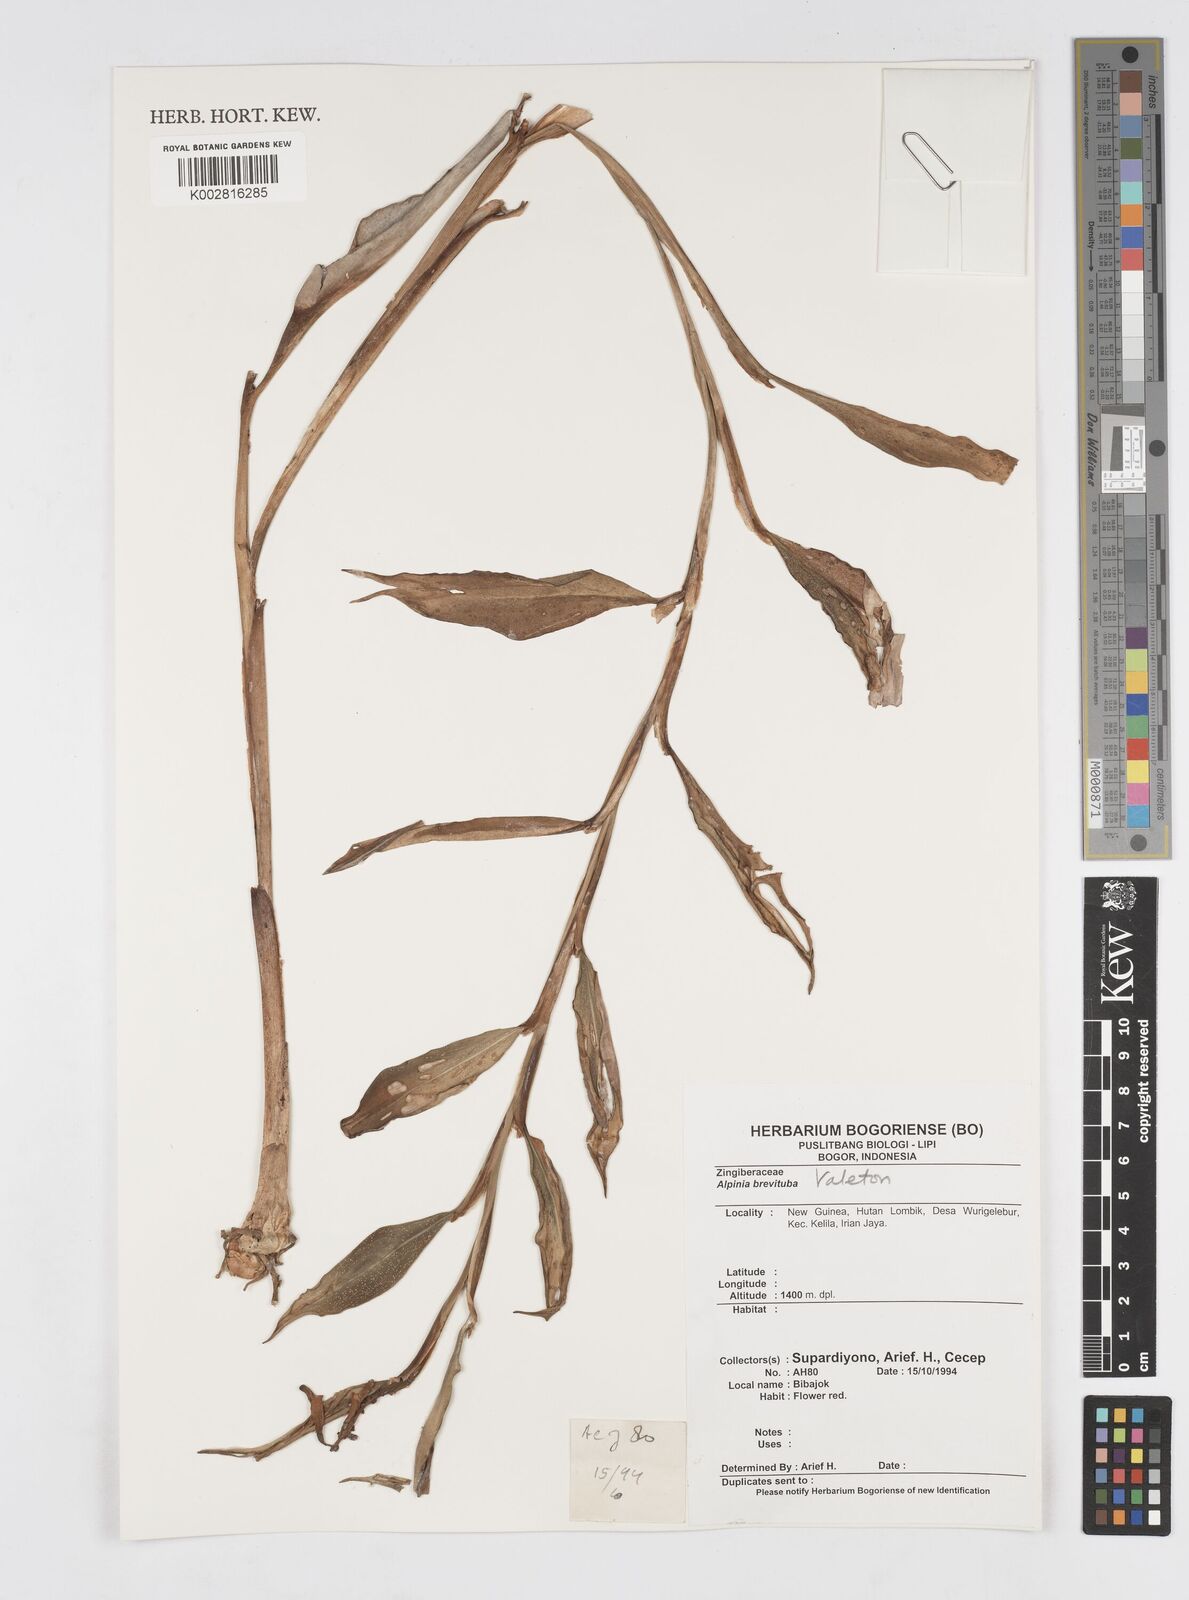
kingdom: Plantae
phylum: Tracheophyta
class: Liliopsida
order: Zingiberales
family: Zingiberaceae
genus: Alpinia
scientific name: Alpinia odontonema
